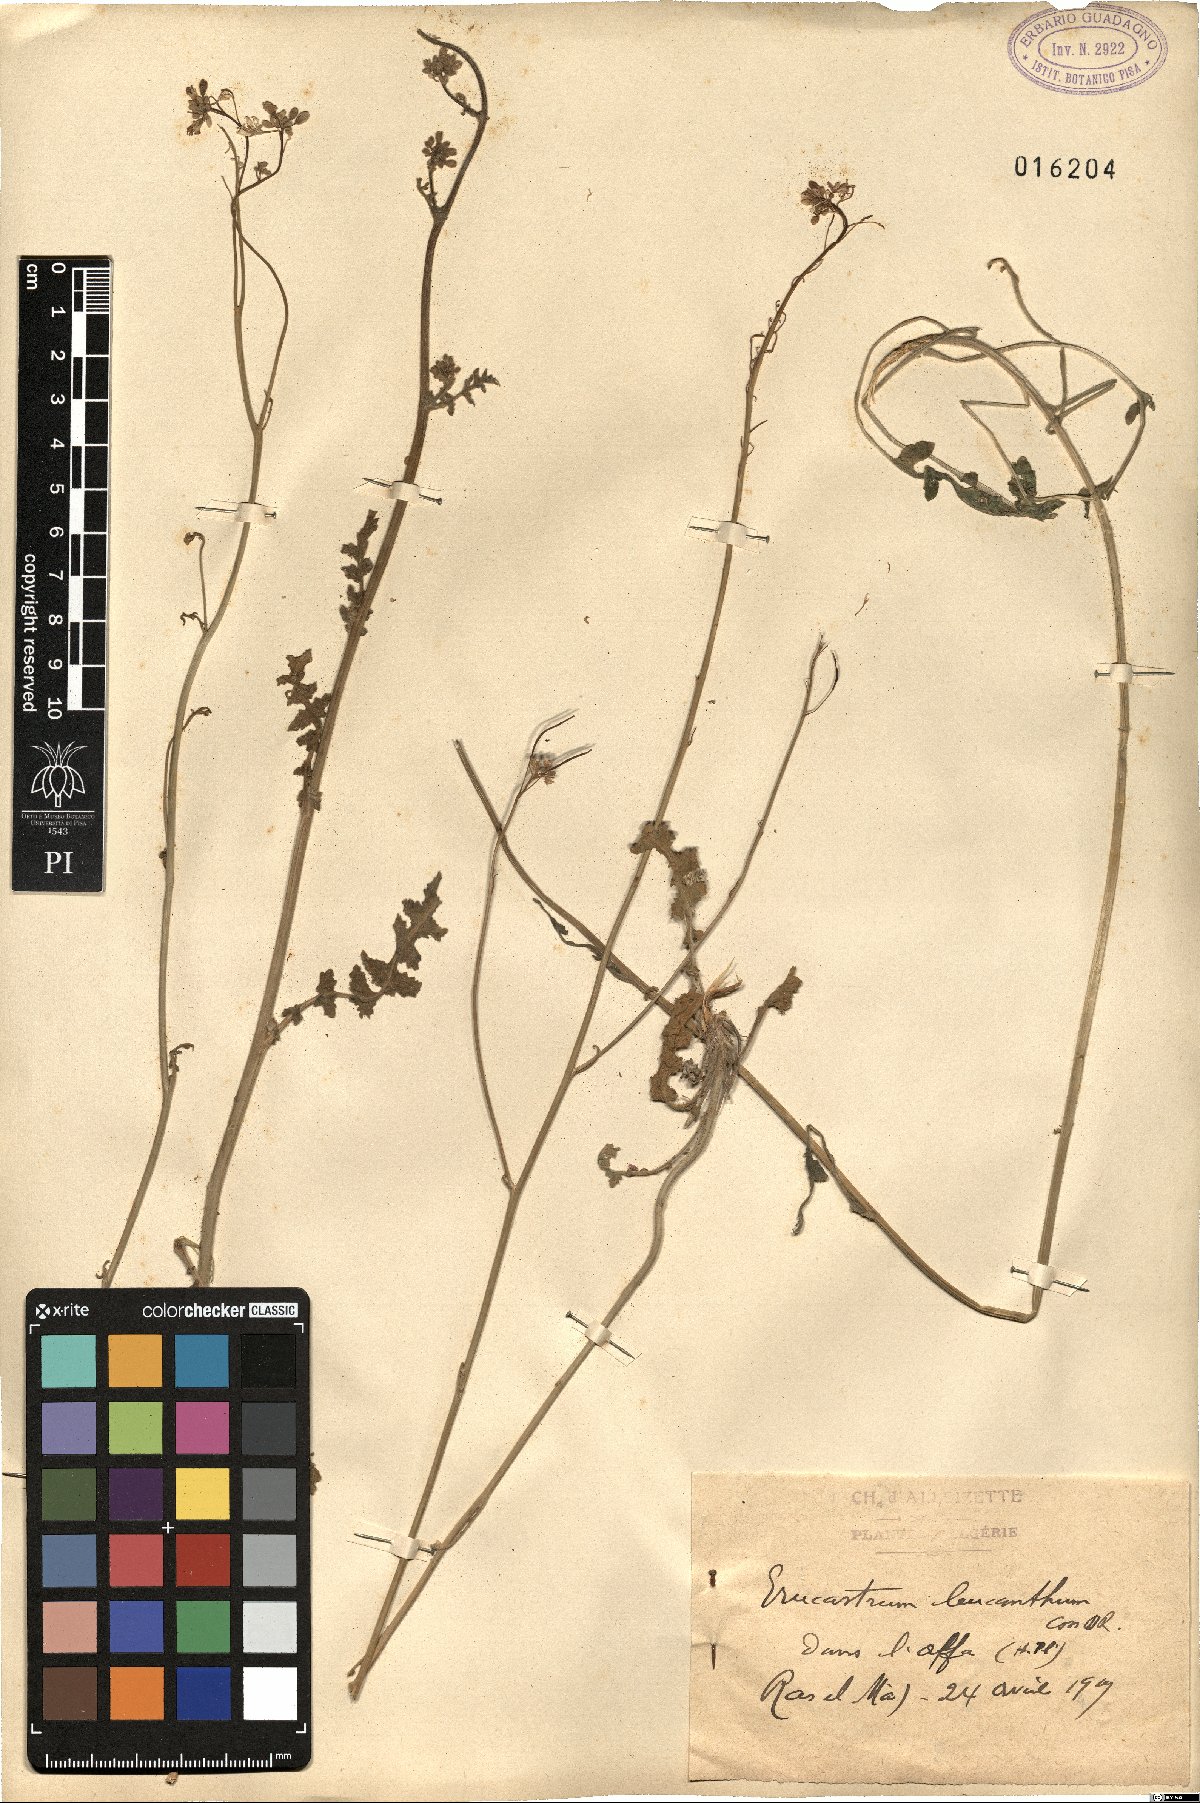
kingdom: Plantae
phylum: Tracheophyta
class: Magnoliopsida
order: Brassicales
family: Brassicaceae
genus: Erucastrum
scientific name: Erucastrum leucanthum
